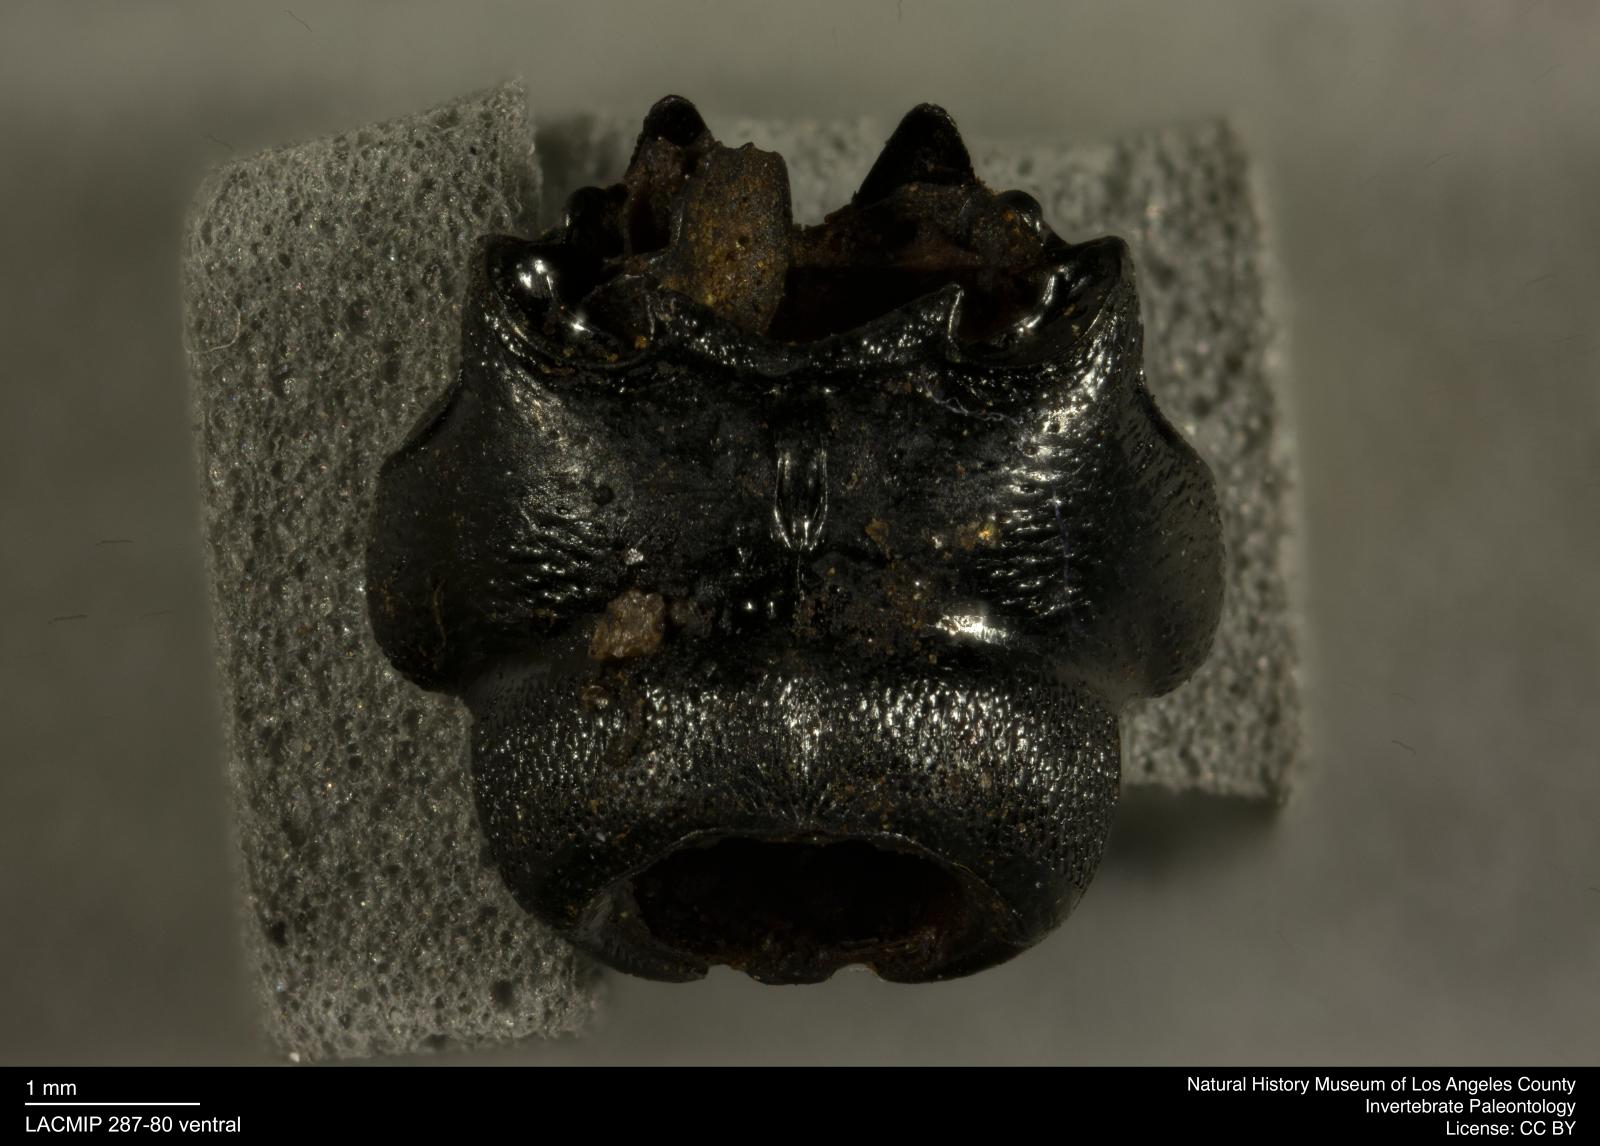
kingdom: Animalia
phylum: Arthropoda
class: Insecta
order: Coleoptera
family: Staphylinidae
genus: Nicrophorus
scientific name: Nicrophorus marginatus
